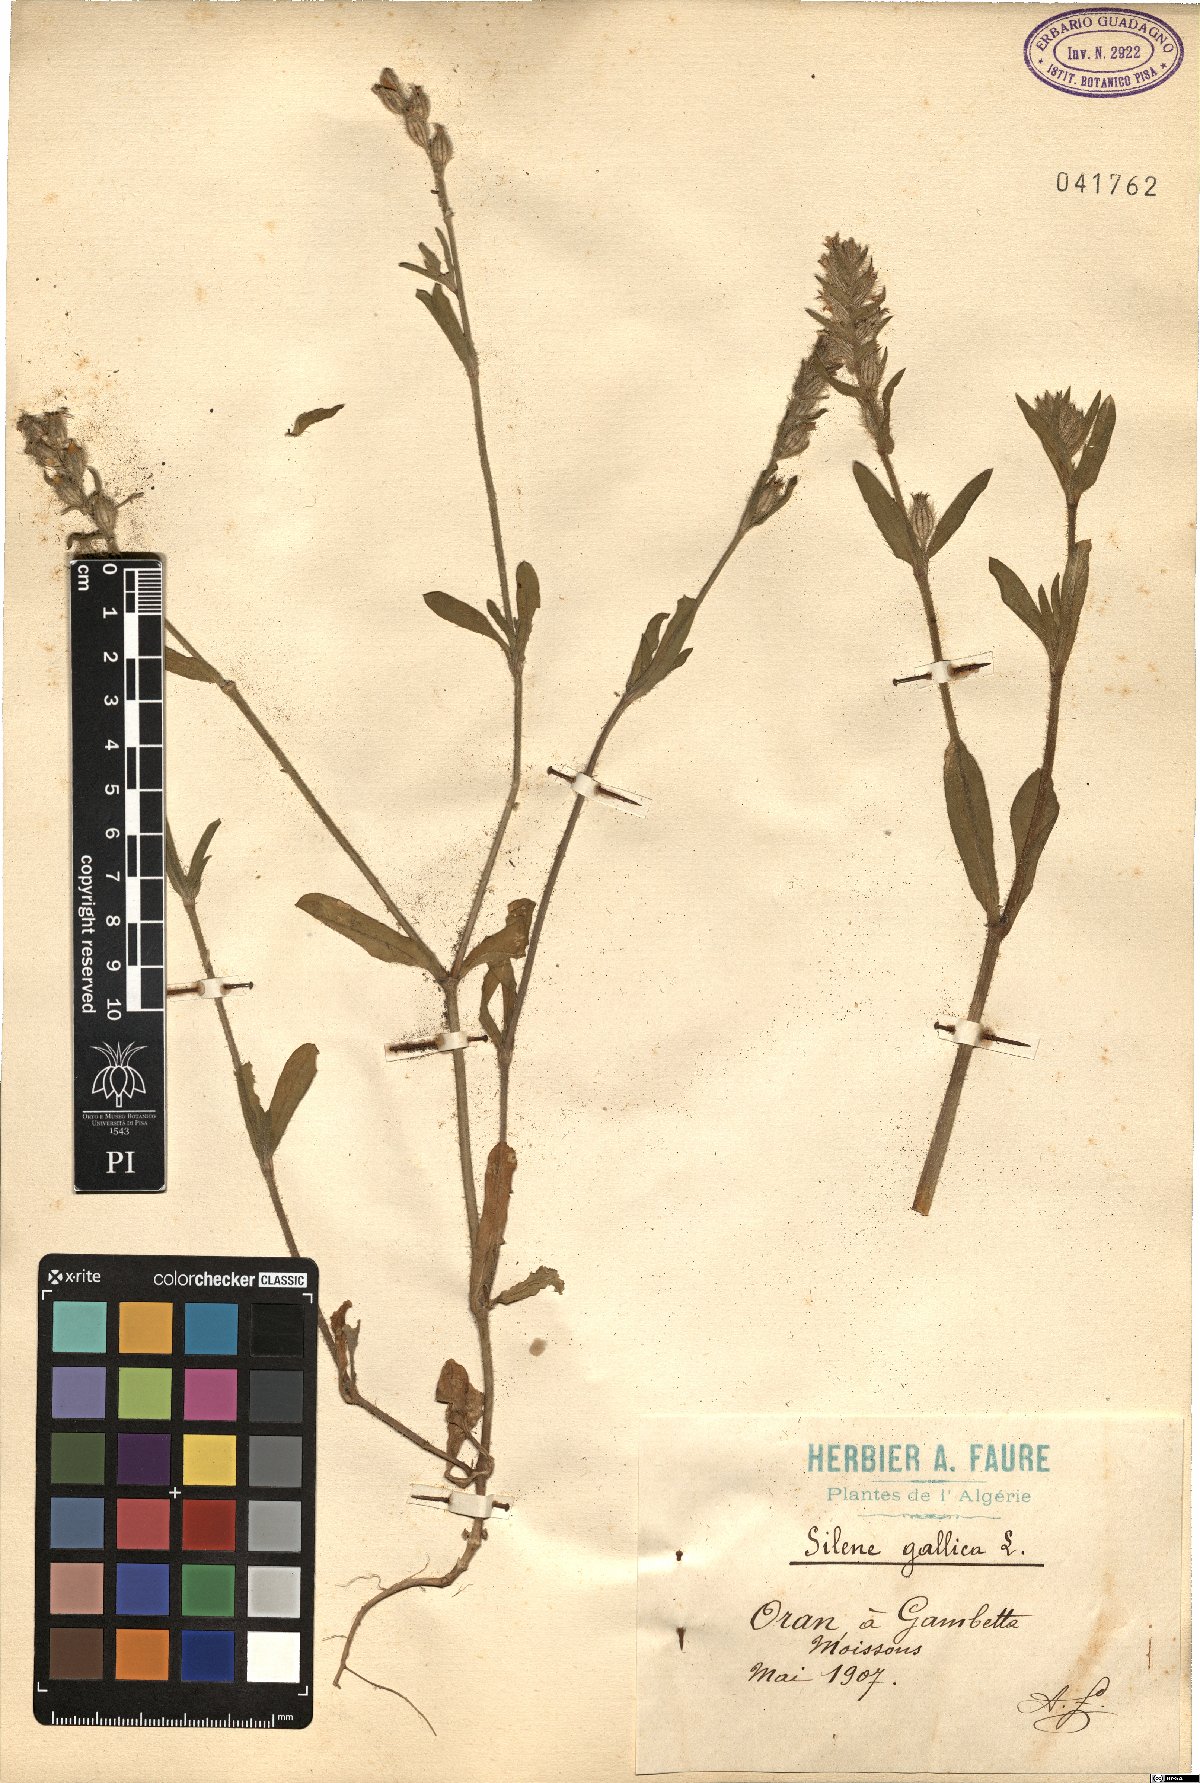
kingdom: Plantae
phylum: Tracheophyta
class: Magnoliopsida
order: Caryophyllales
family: Caryophyllaceae
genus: Silene
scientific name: Silene gallica
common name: Small-flowered catchfly
